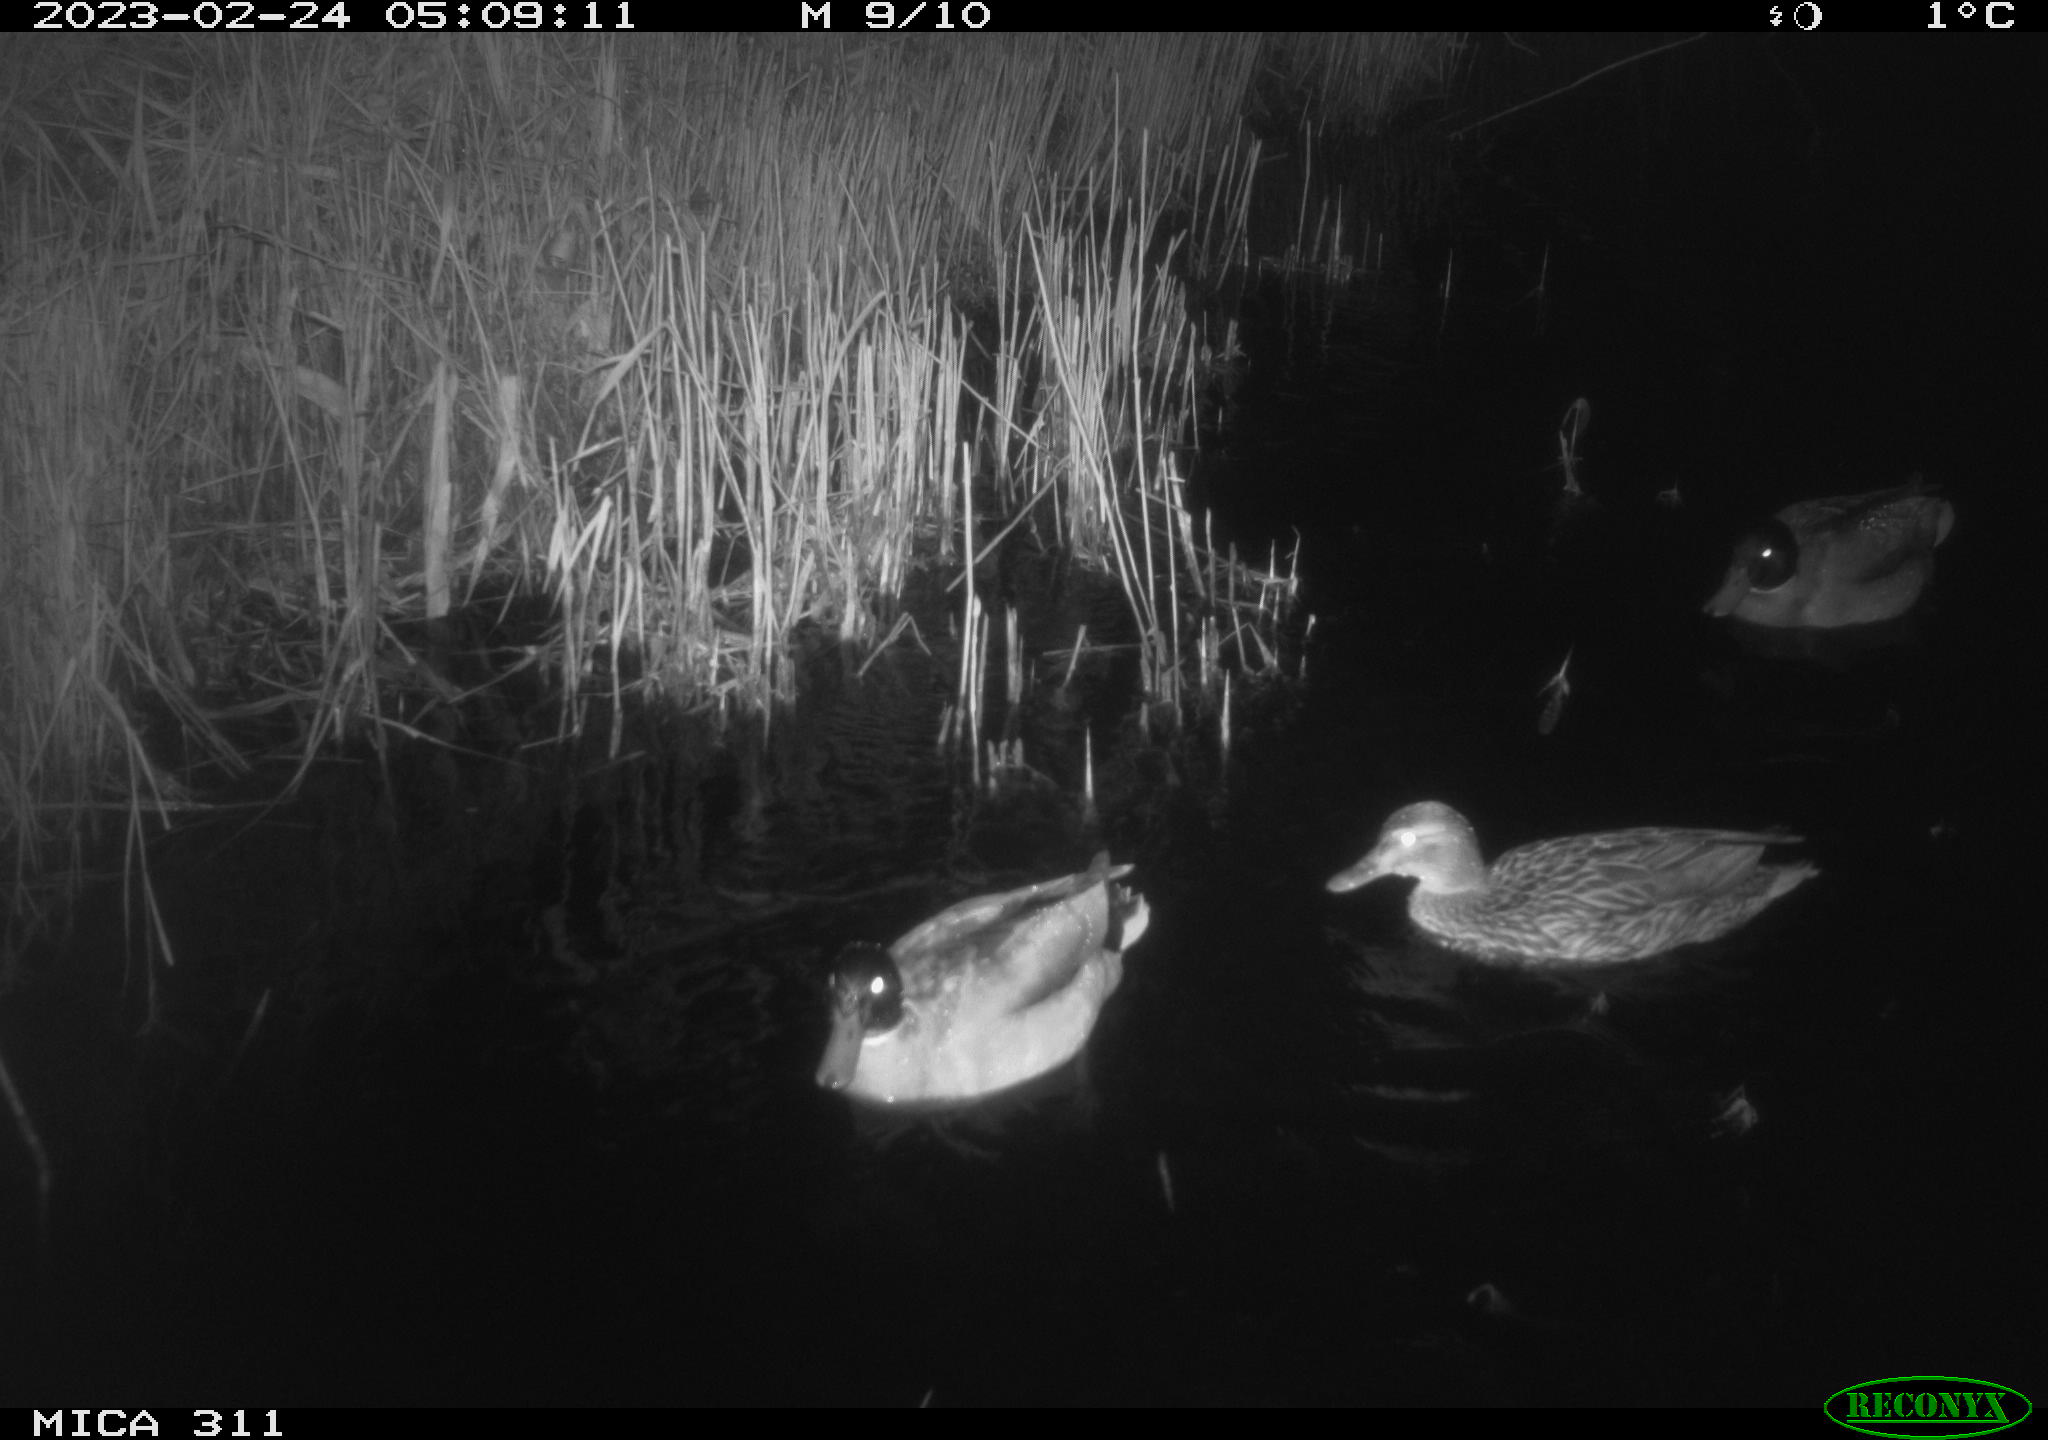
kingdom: Animalia
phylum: Chordata
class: Aves
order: Anseriformes
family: Anatidae
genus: Anas
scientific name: Anas
